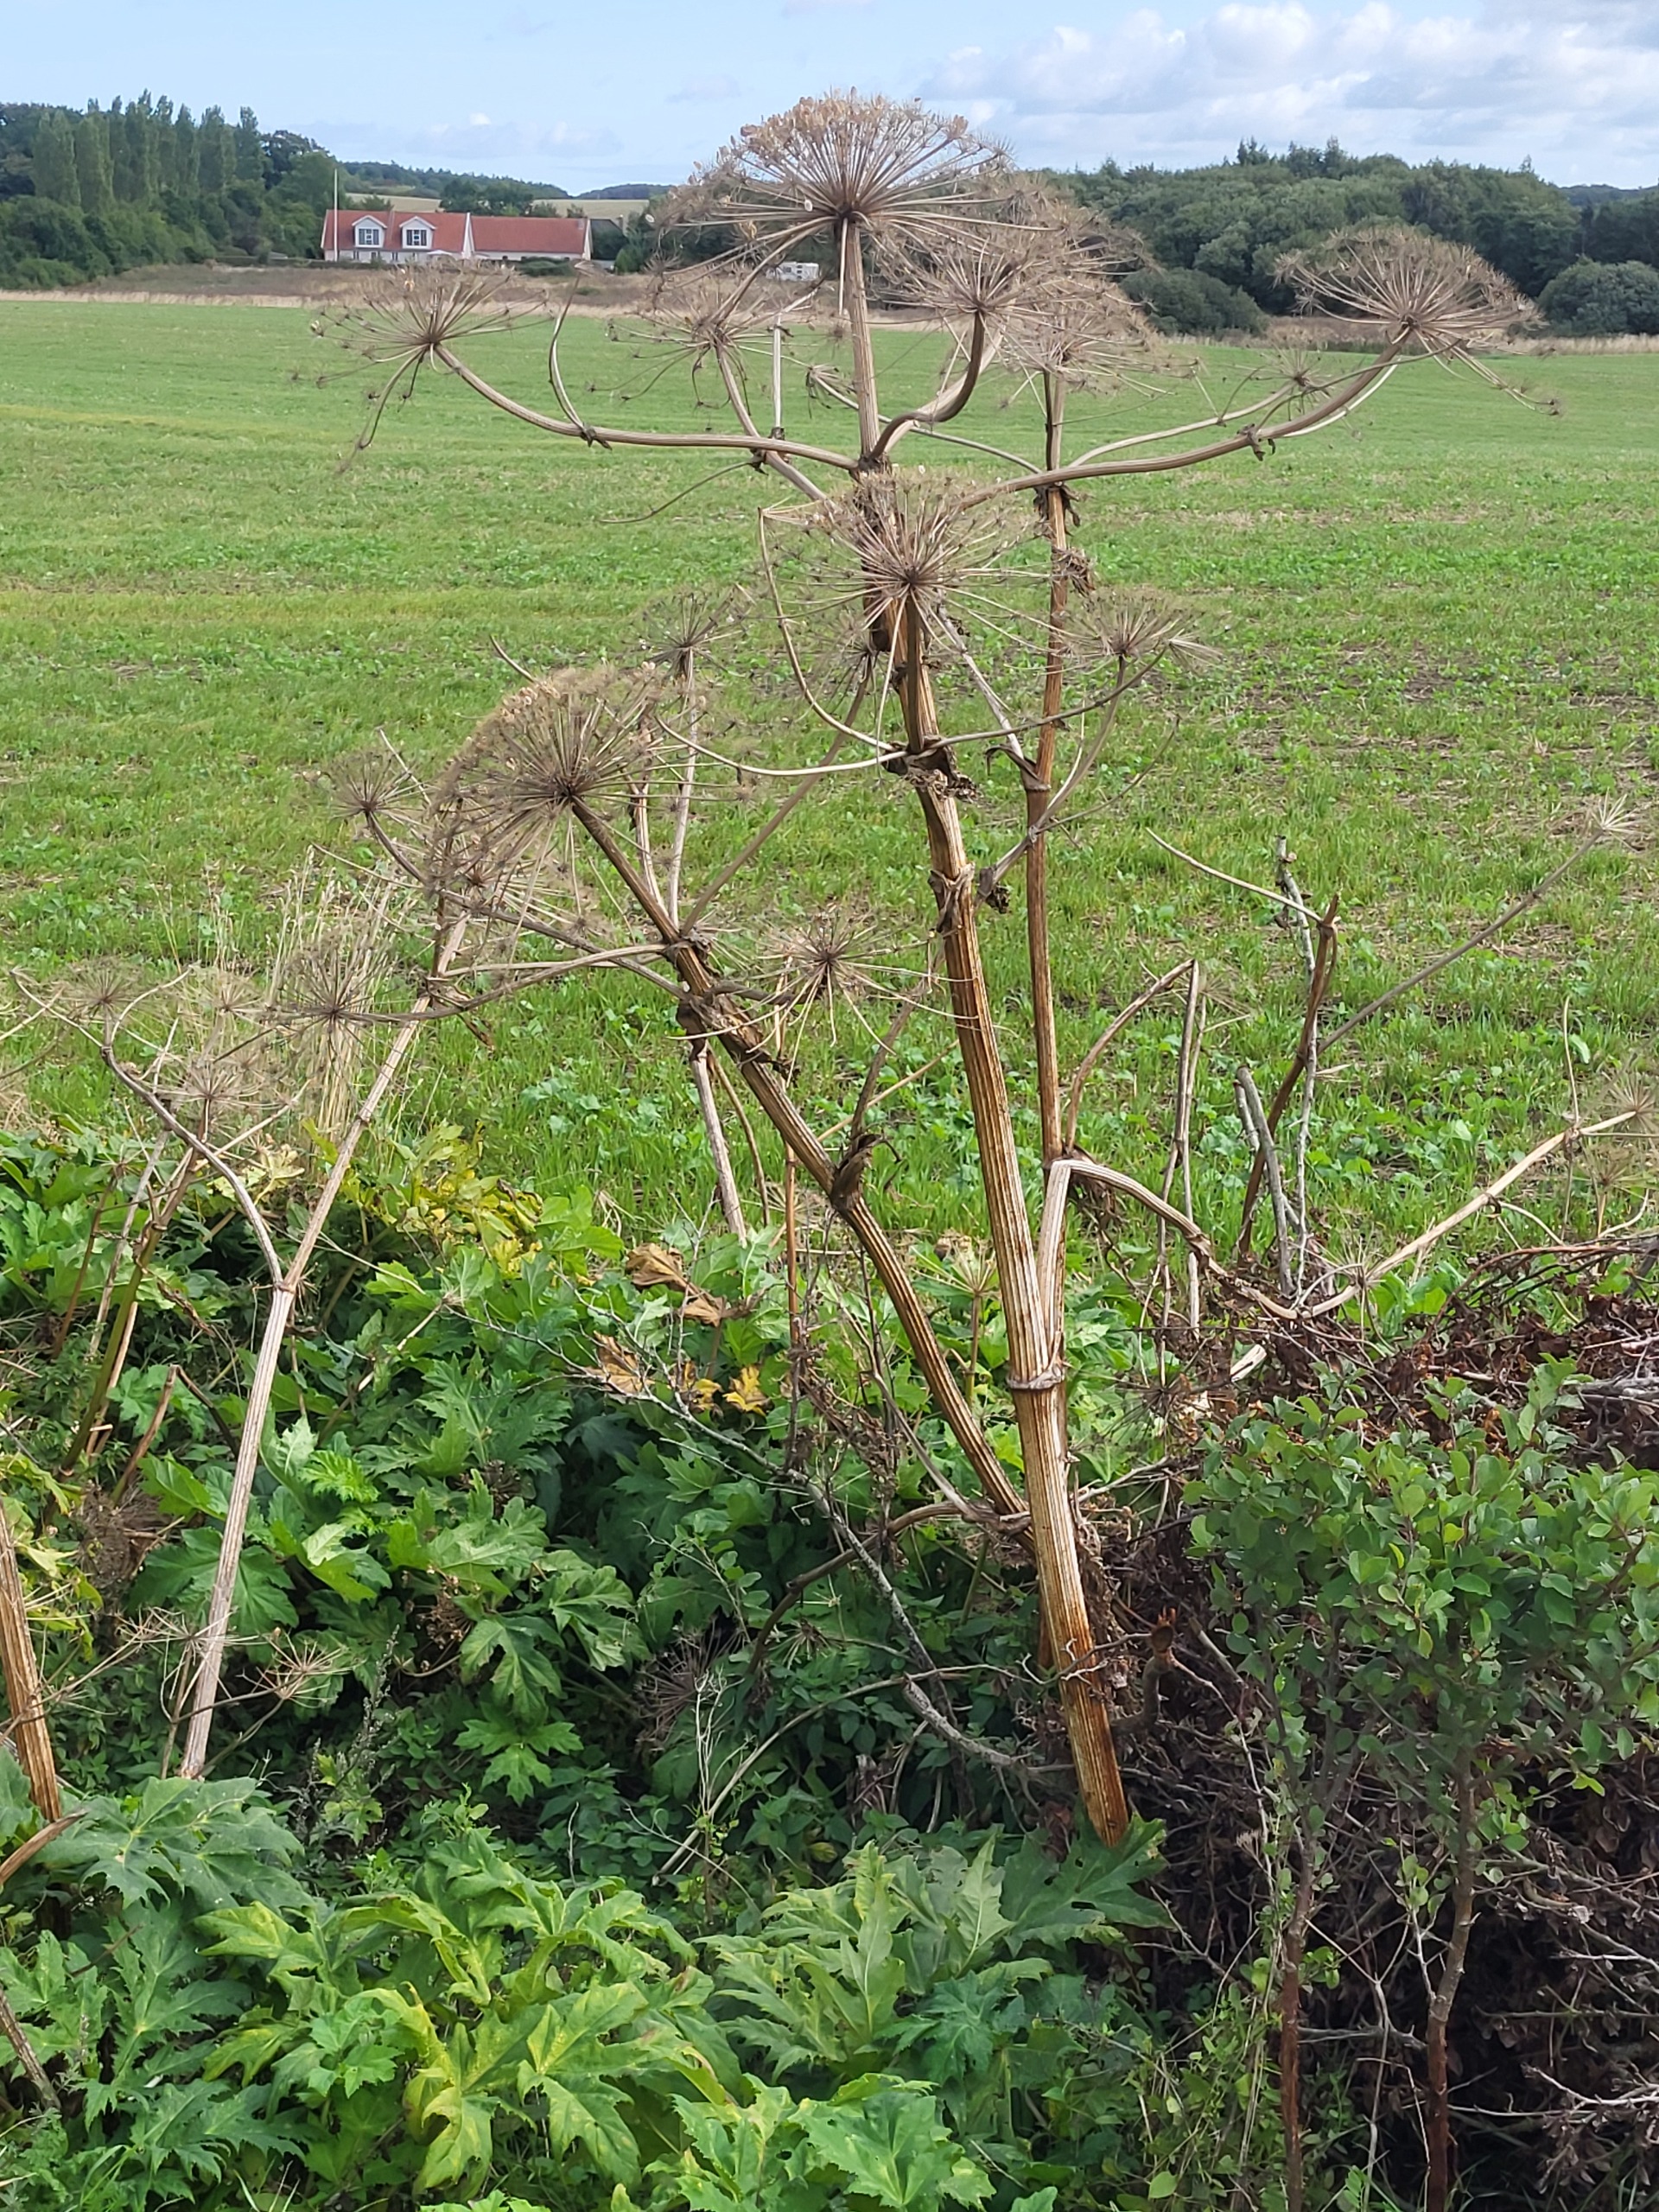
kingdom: Plantae
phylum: Tracheophyta
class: Magnoliopsida
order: Apiales
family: Apiaceae
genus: Heracleum
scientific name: Heracleum mantegazzianum
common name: Kæmpe-bjørneklo
